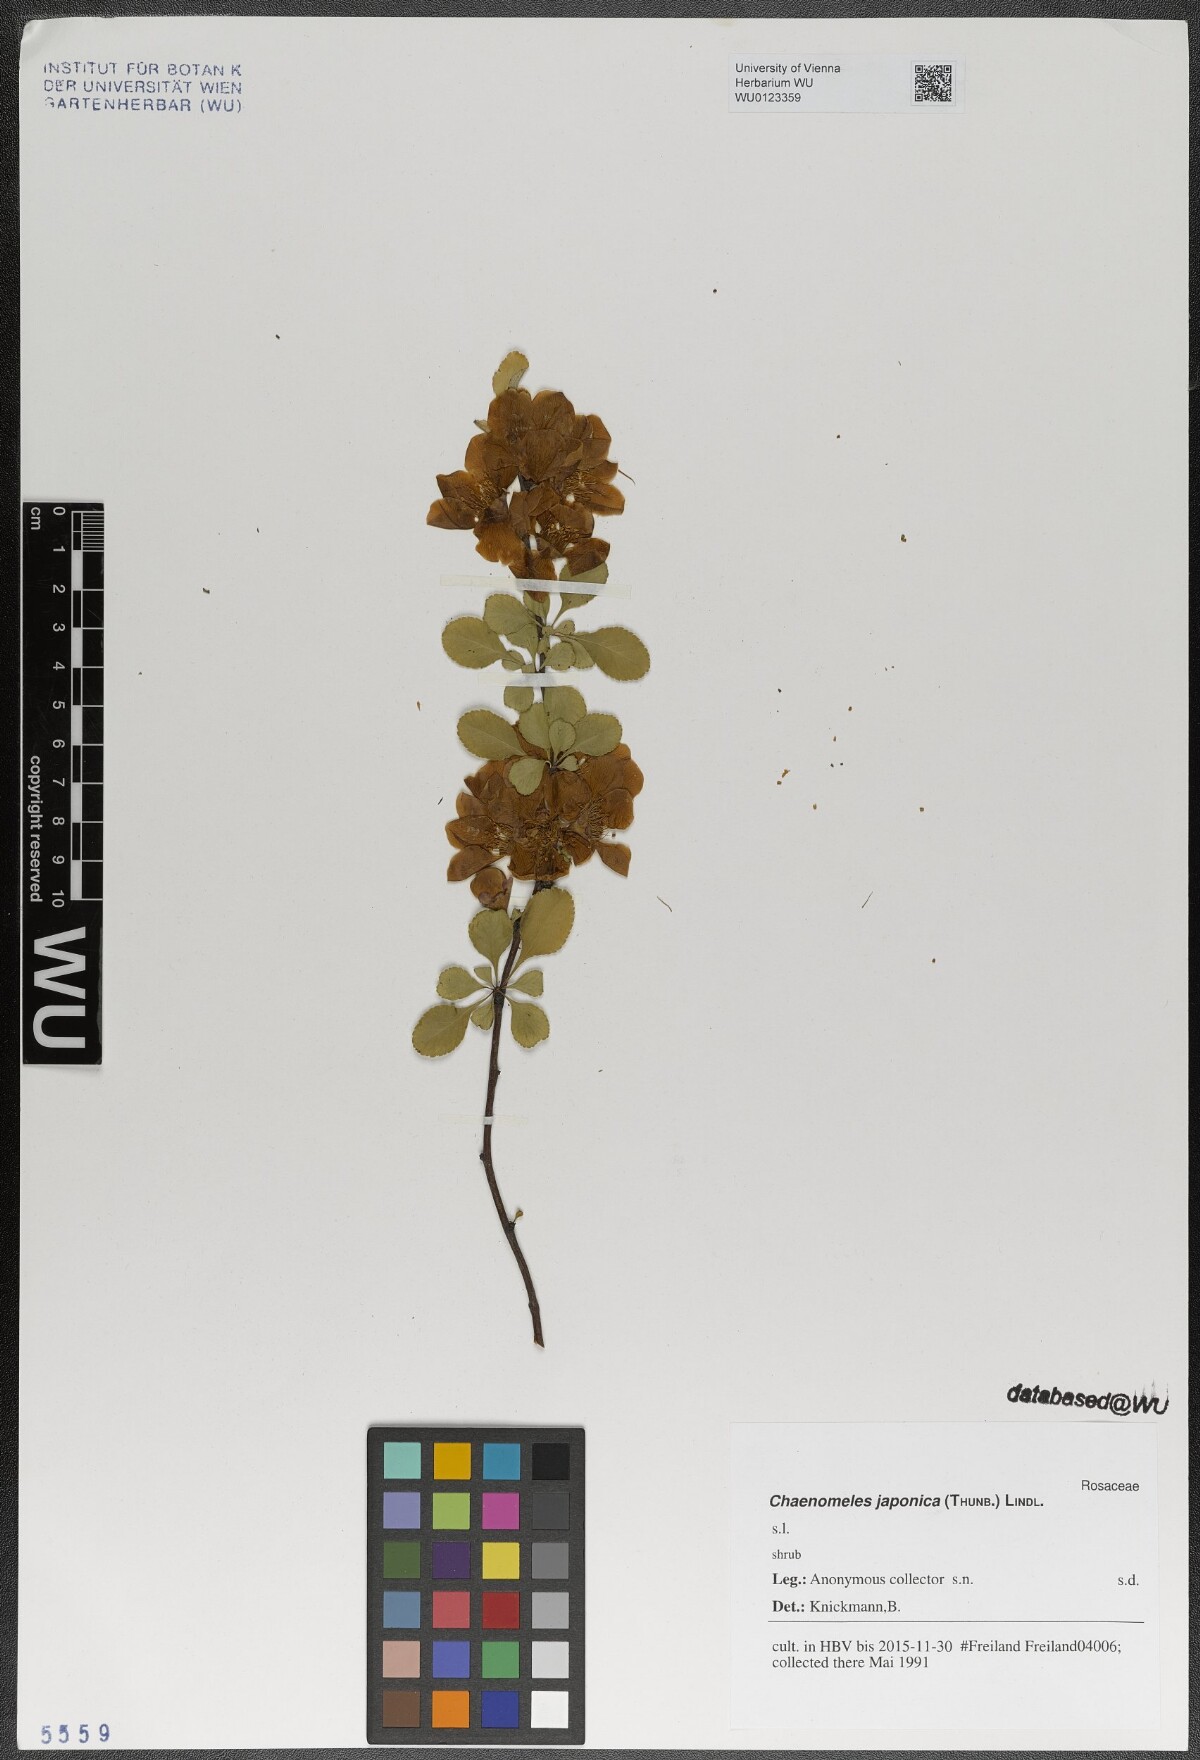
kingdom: Plantae
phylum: Tracheophyta
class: Magnoliopsida
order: Rosales
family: Rosaceae
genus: Chaenomeles
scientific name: Chaenomeles japonica
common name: Japanese quince
